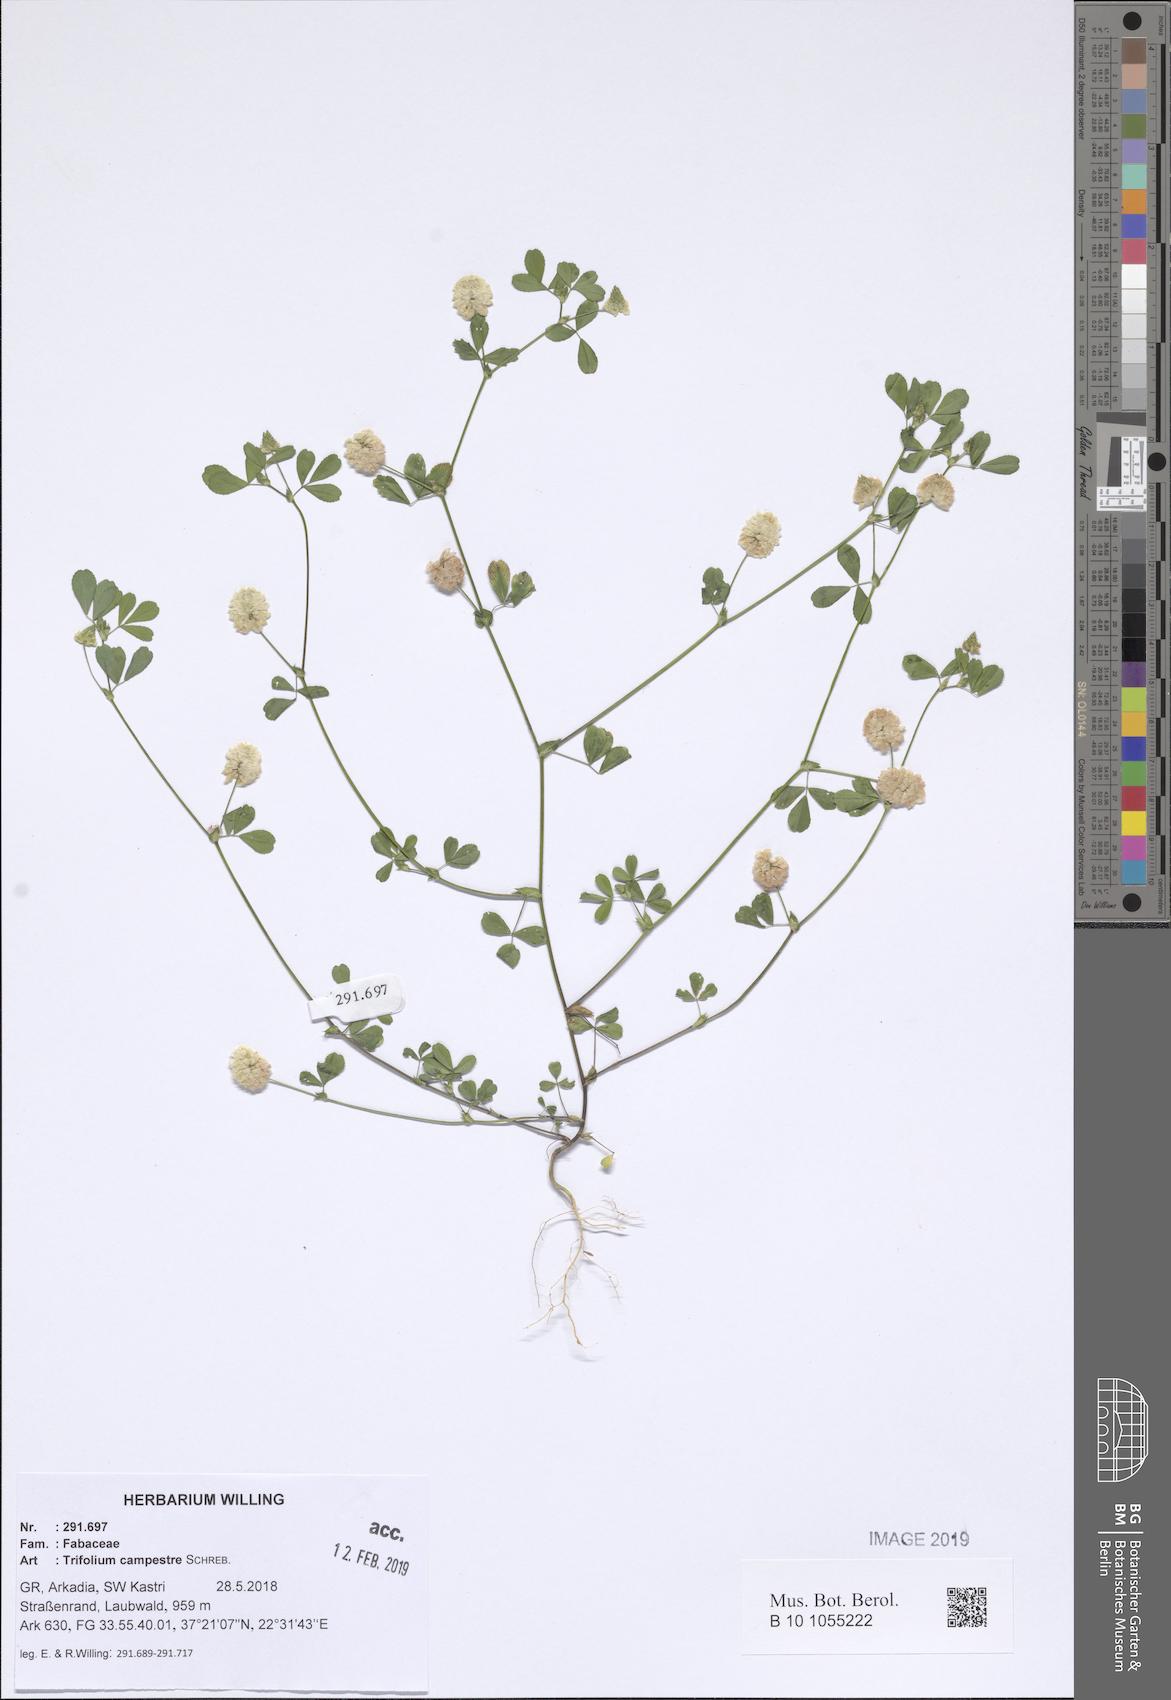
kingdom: Plantae
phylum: Tracheophyta
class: Magnoliopsida
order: Fabales
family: Fabaceae
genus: Trifolium
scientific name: Trifolium campestre
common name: Field clover
